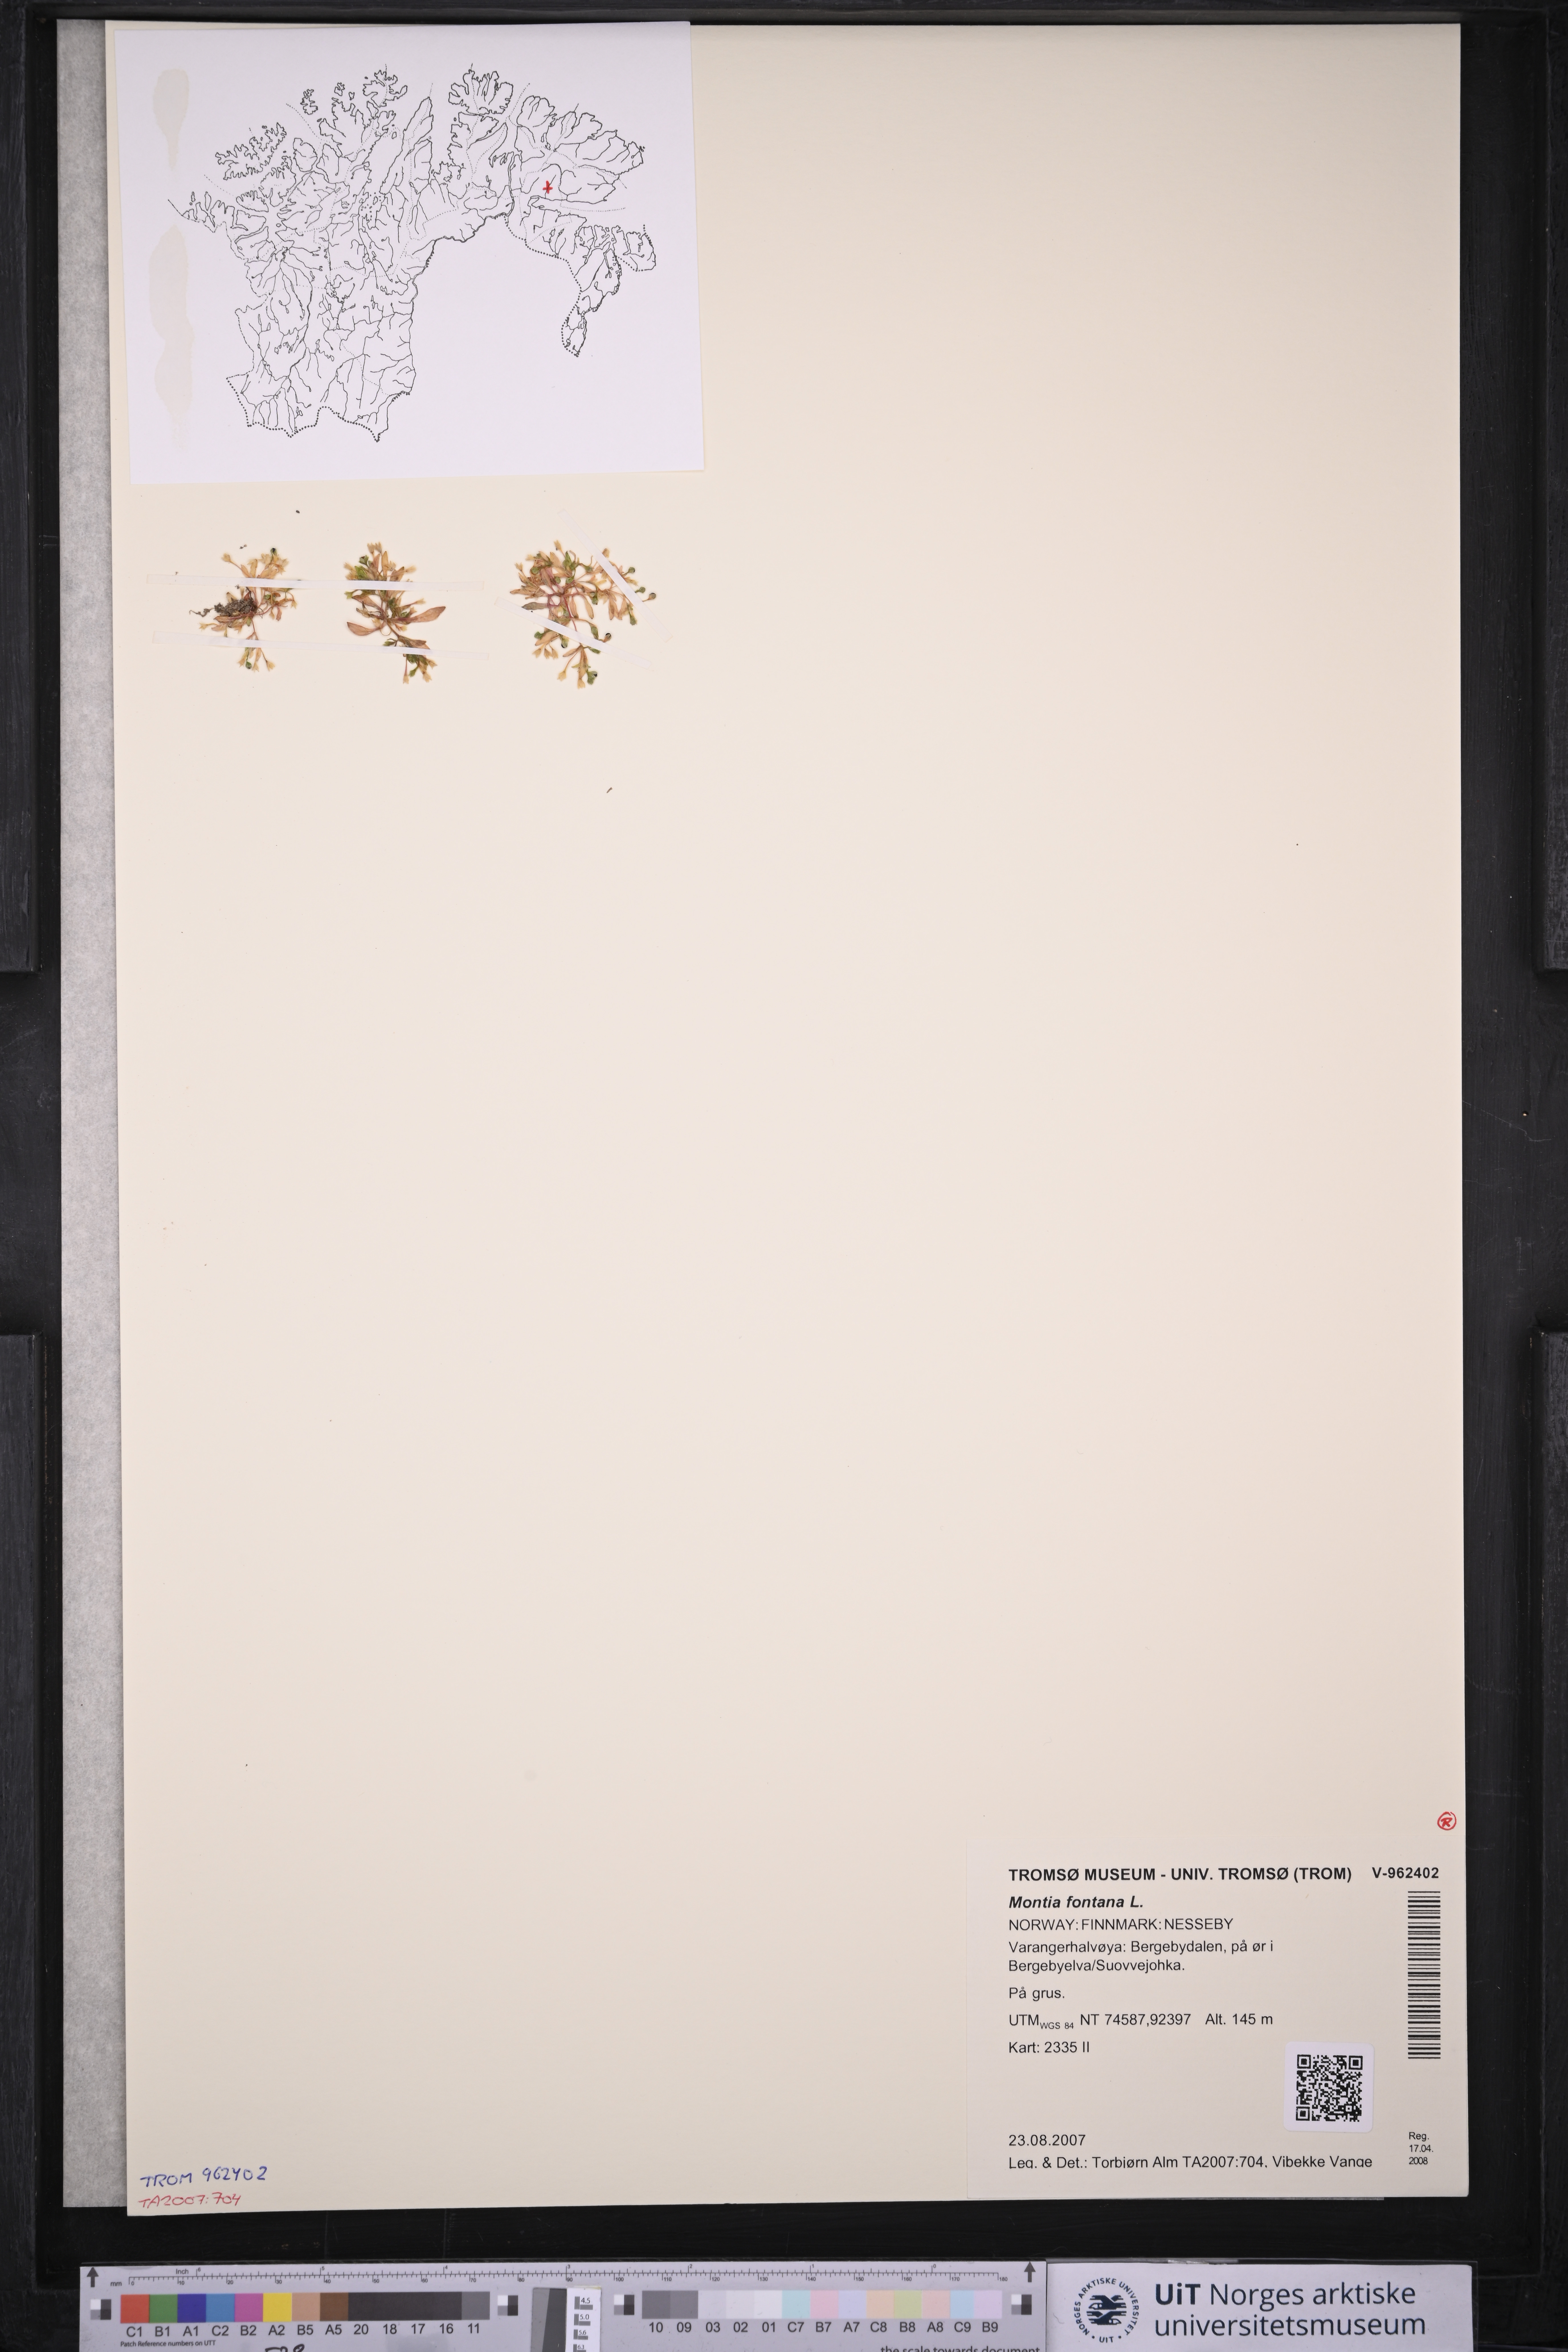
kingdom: Plantae
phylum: Tracheophyta
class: Magnoliopsida
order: Caryophyllales
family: Montiaceae
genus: Montia
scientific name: Montia fontana
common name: Blinks
